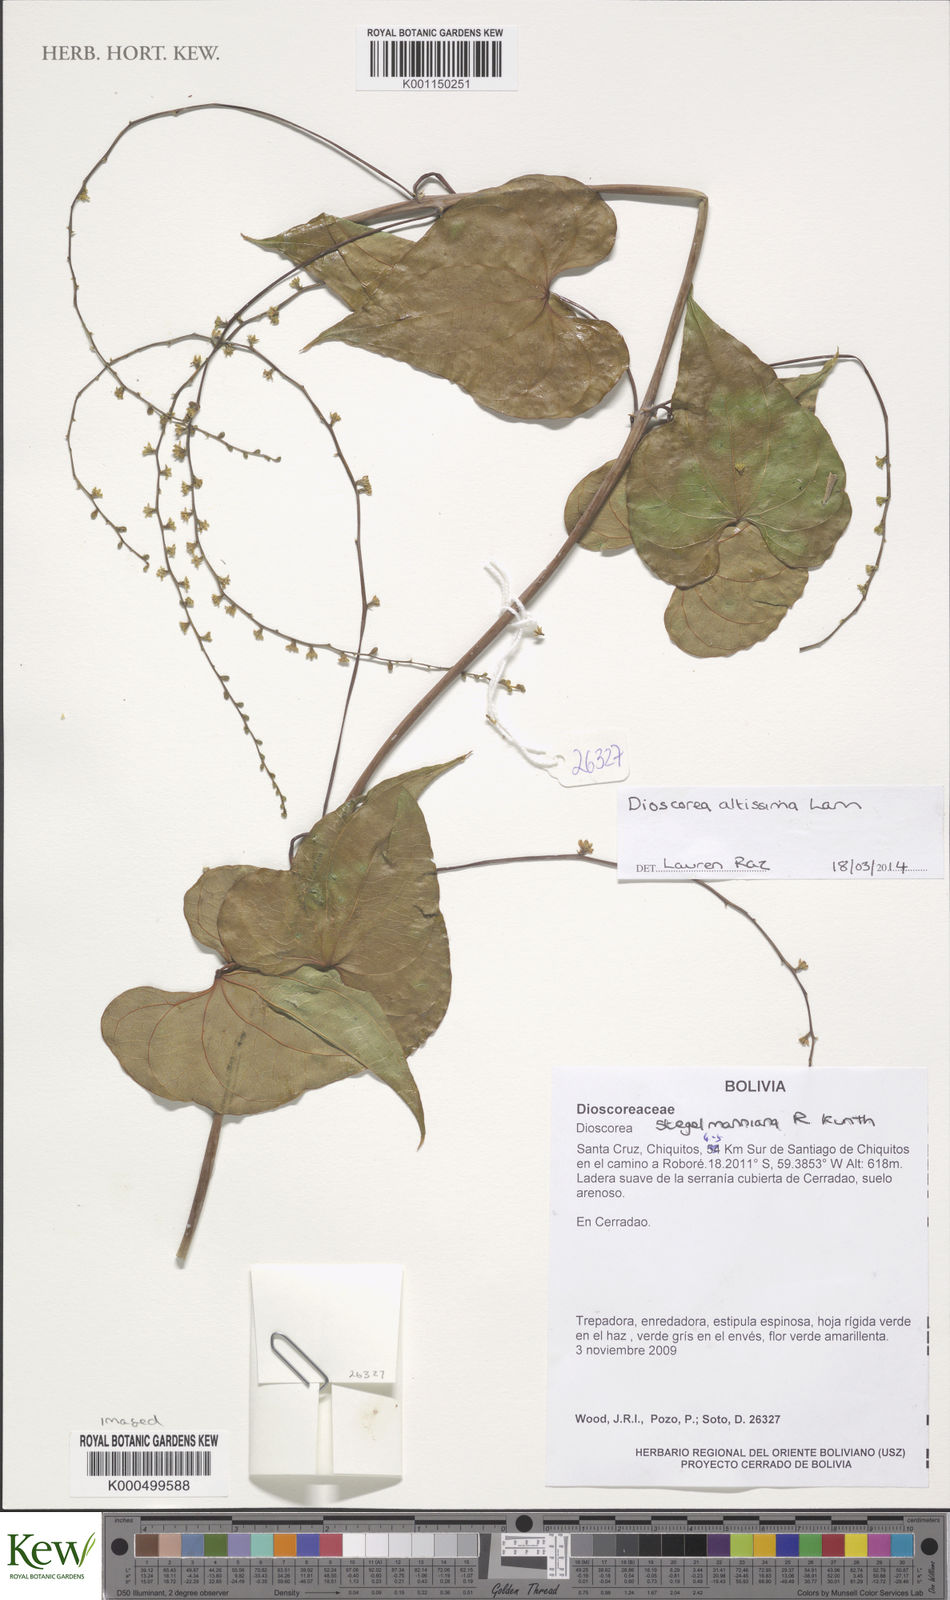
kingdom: Plantae
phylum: Tracheophyta
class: Liliopsida
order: Dioscoreales
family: Dioscoreaceae
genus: Dioscorea
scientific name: Dioscorea chondrocarpa
